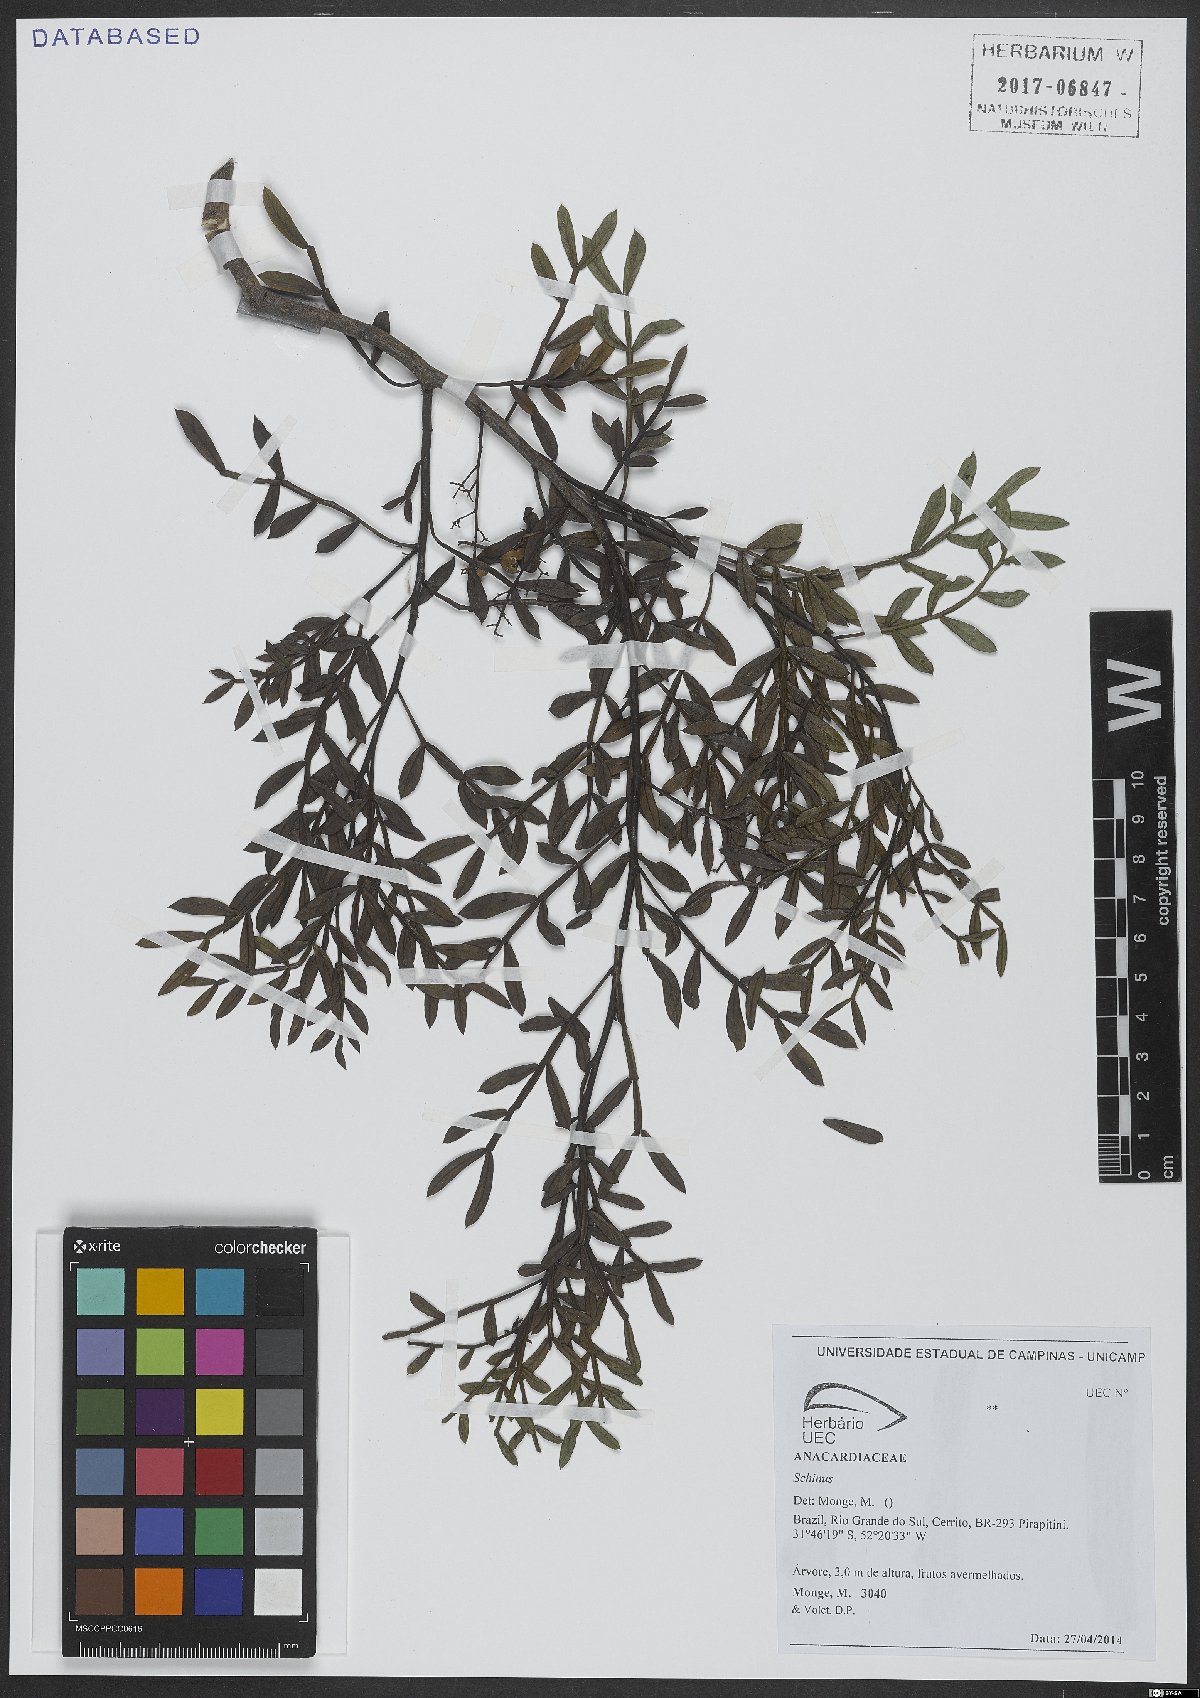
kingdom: Plantae
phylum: Tracheophyta
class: Magnoliopsida
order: Sapindales
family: Anacardiaceae
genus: Schinus
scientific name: Schinus
